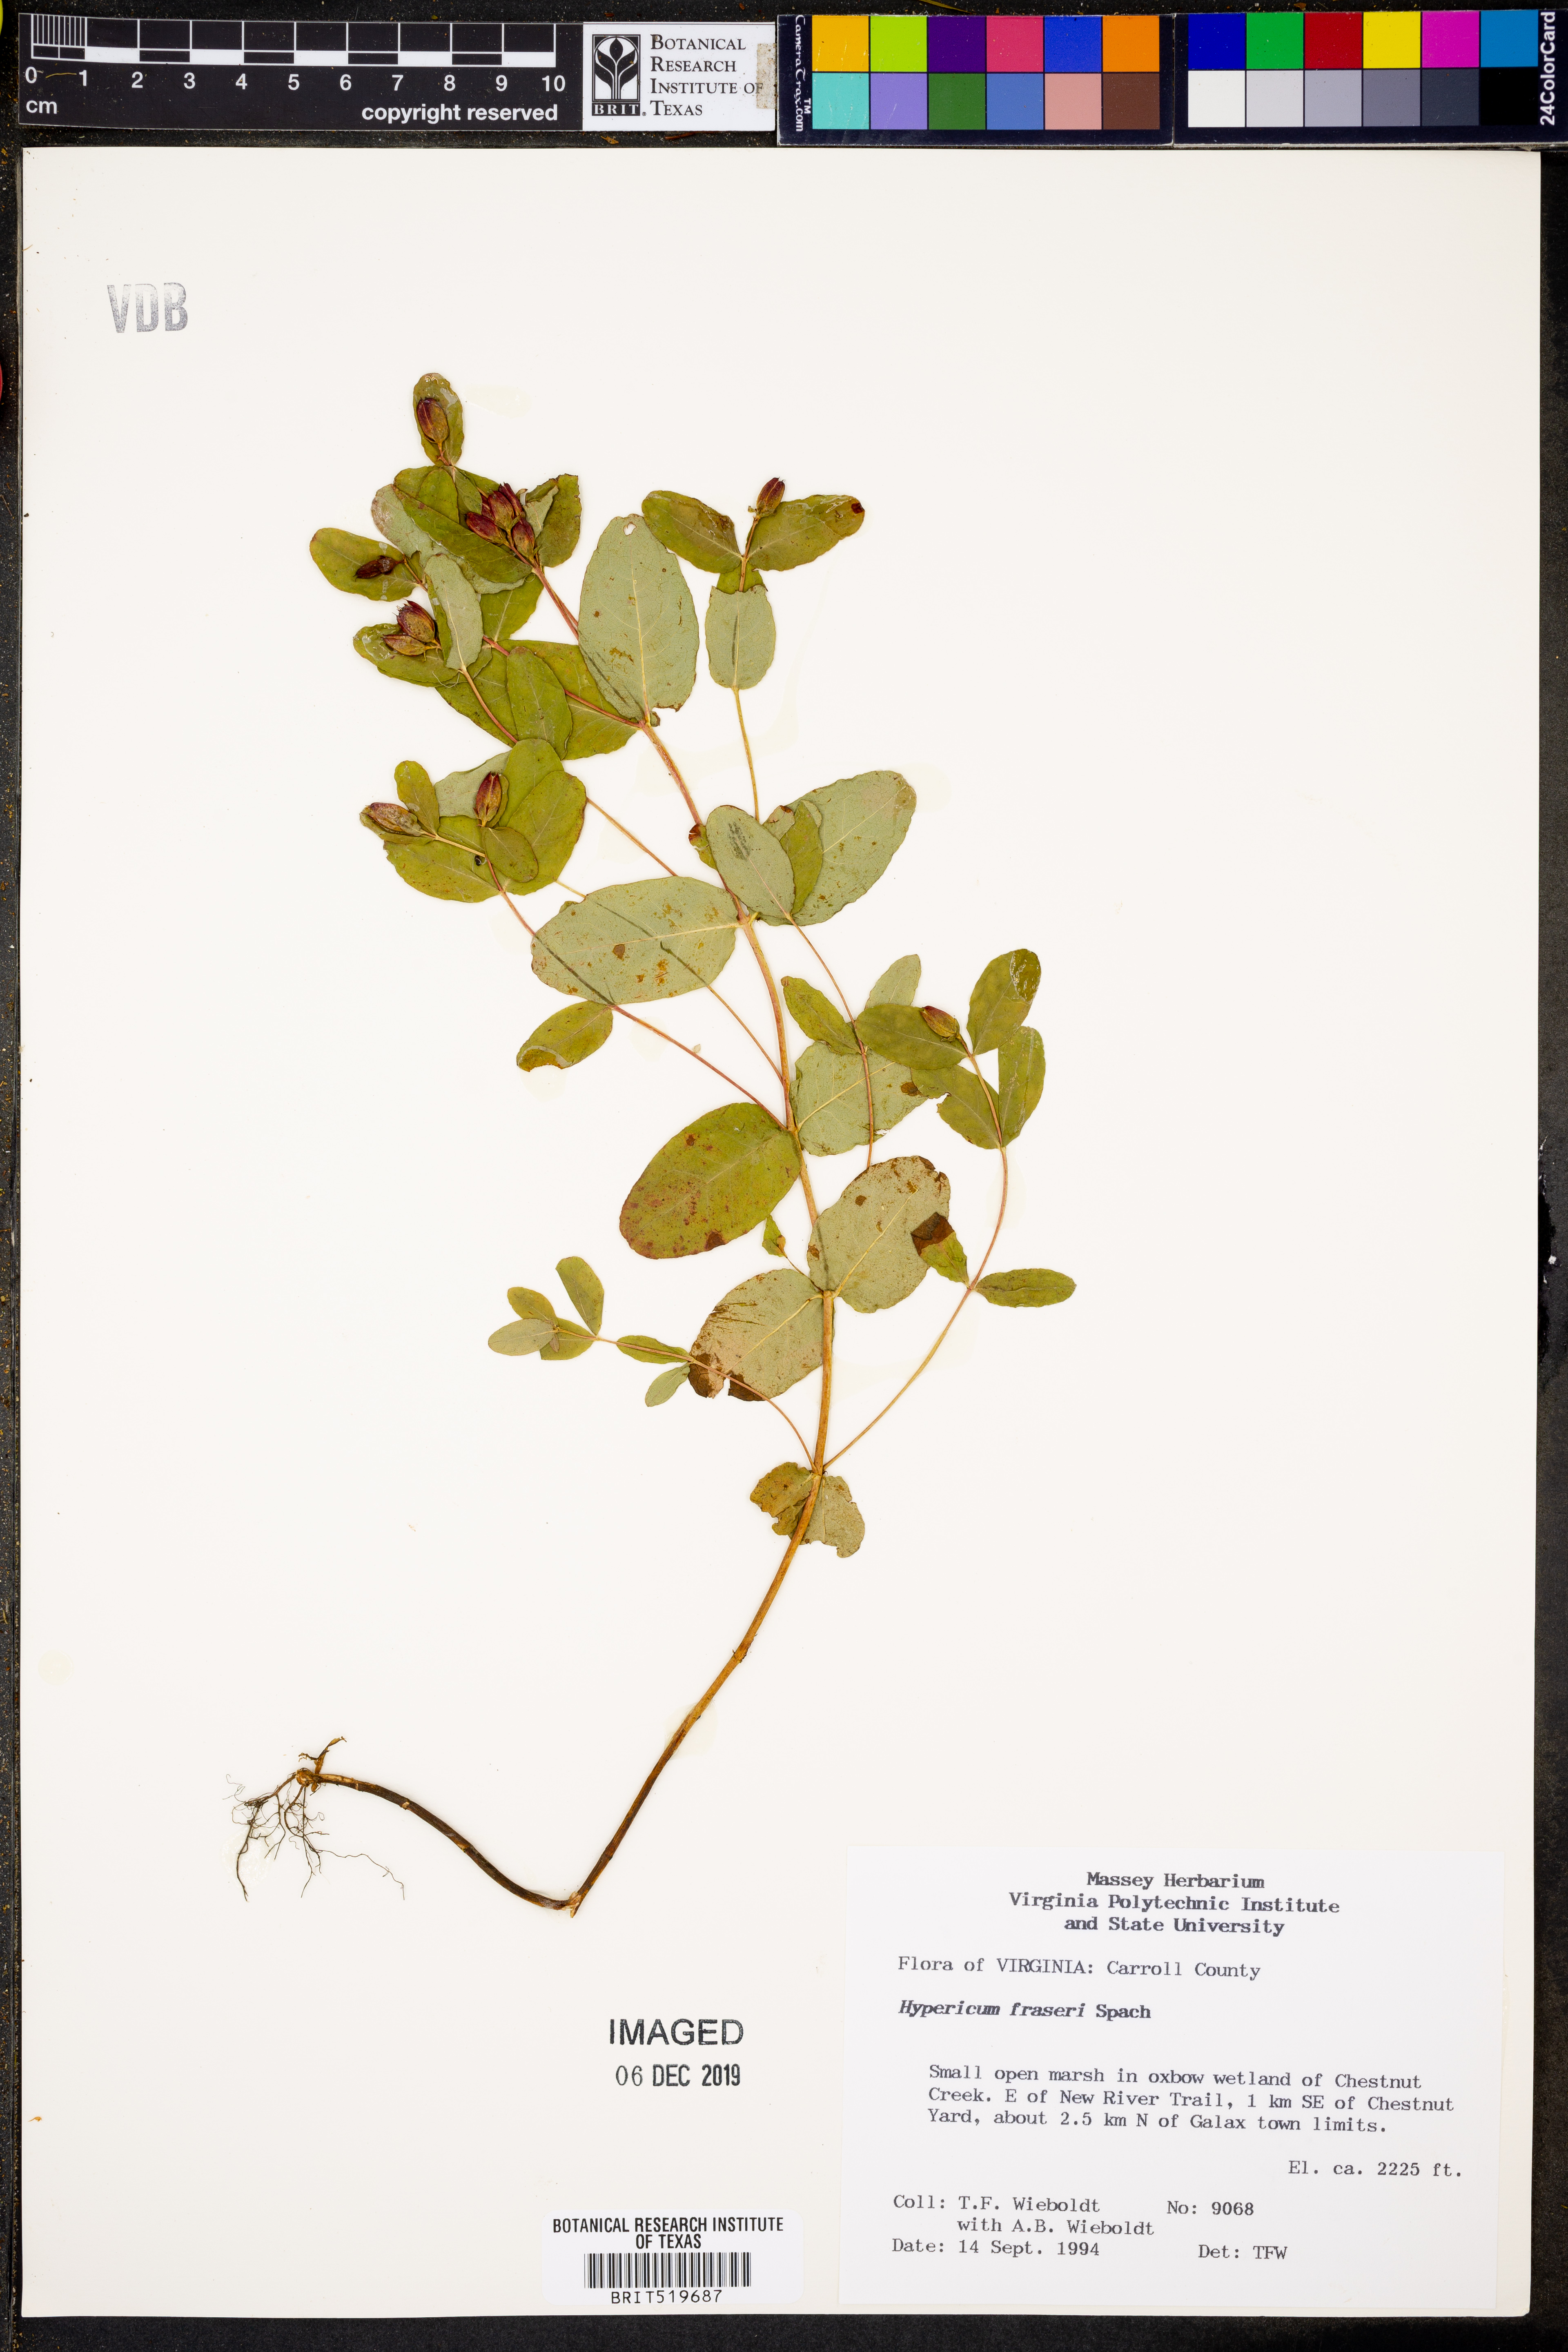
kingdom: Plantae
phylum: Tracheophyta
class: Magnoliopsida
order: Malpighiales
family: Hypericaceae
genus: Triadenum
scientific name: Triadenum fraseri
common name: Fraser's marsh st. johnswort
